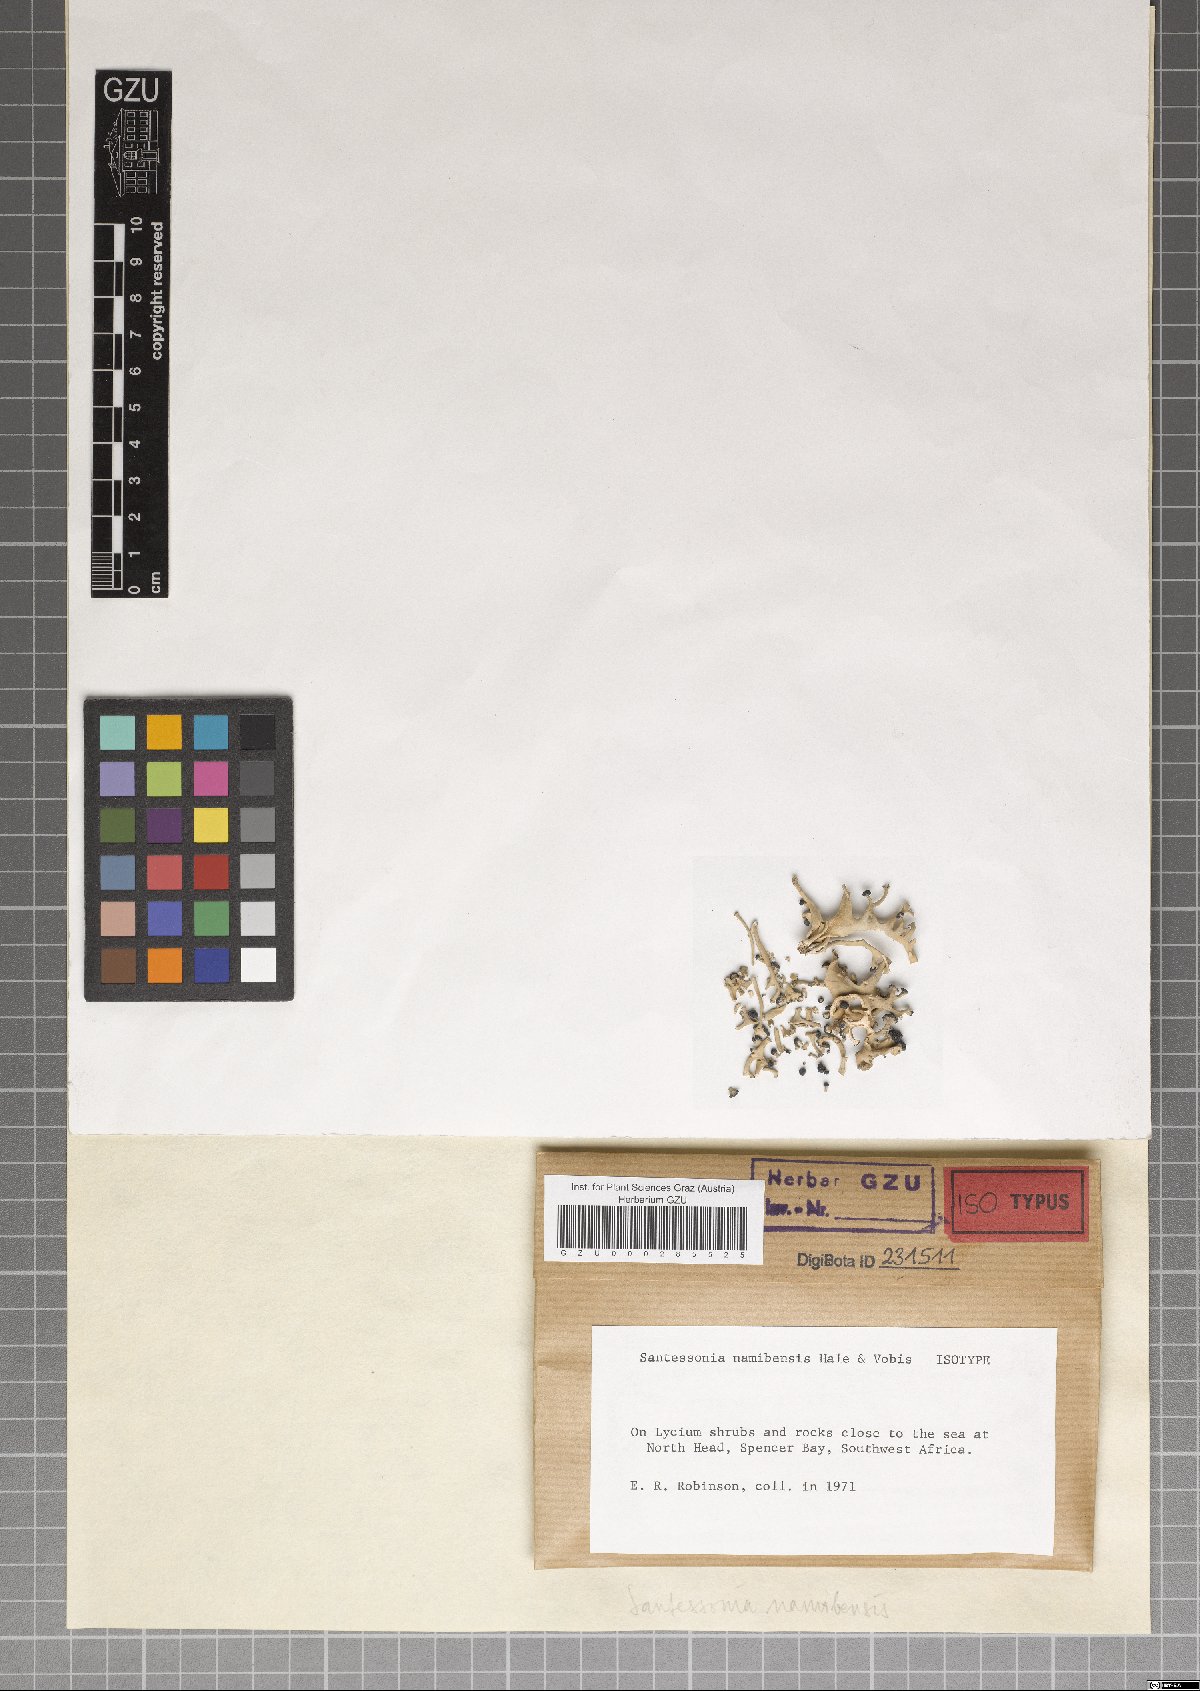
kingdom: Fungi
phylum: Ascomycota
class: Lecanoromycetes
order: Caliciales
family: Caliciaceae
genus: Santessonia
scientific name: Santessonia namibensis
